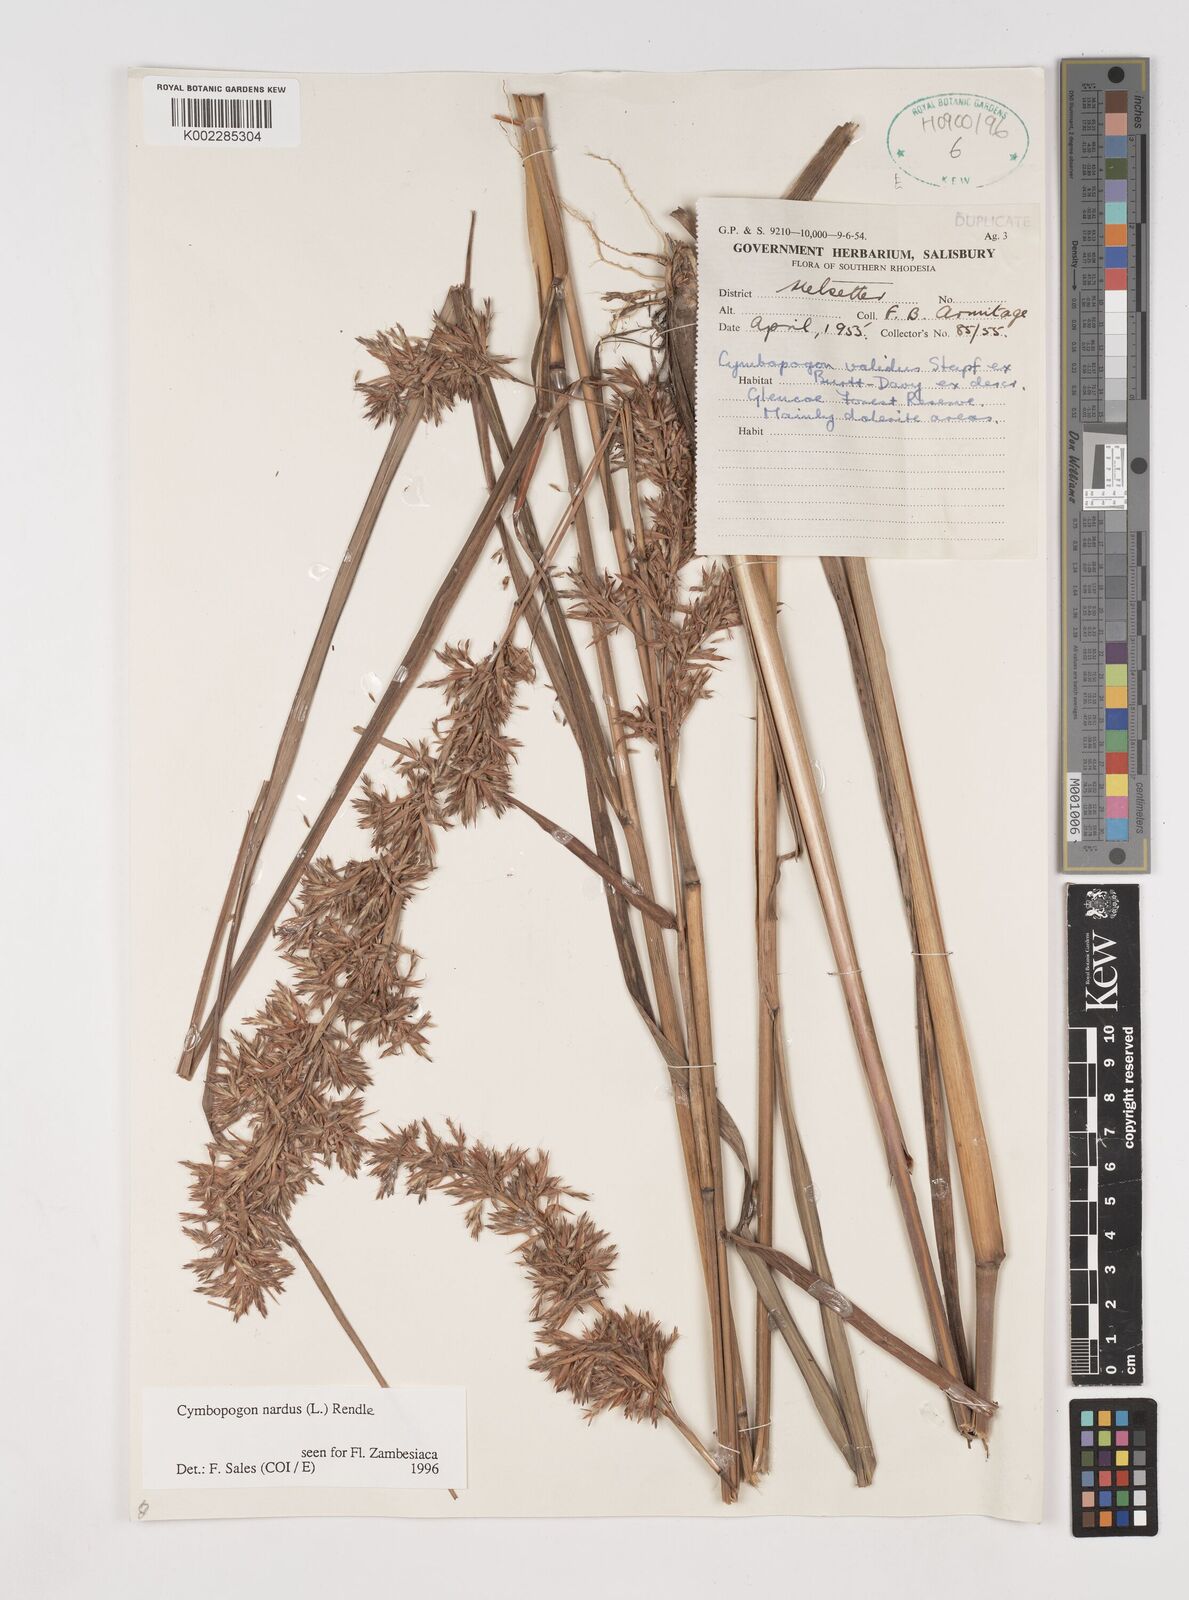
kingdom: Plantae
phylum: Tracheophyta
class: Liliopsida
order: Poales
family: Poaceae
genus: Cymbopogon
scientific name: Cymbopogon nardus
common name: Giant turpentine grass
